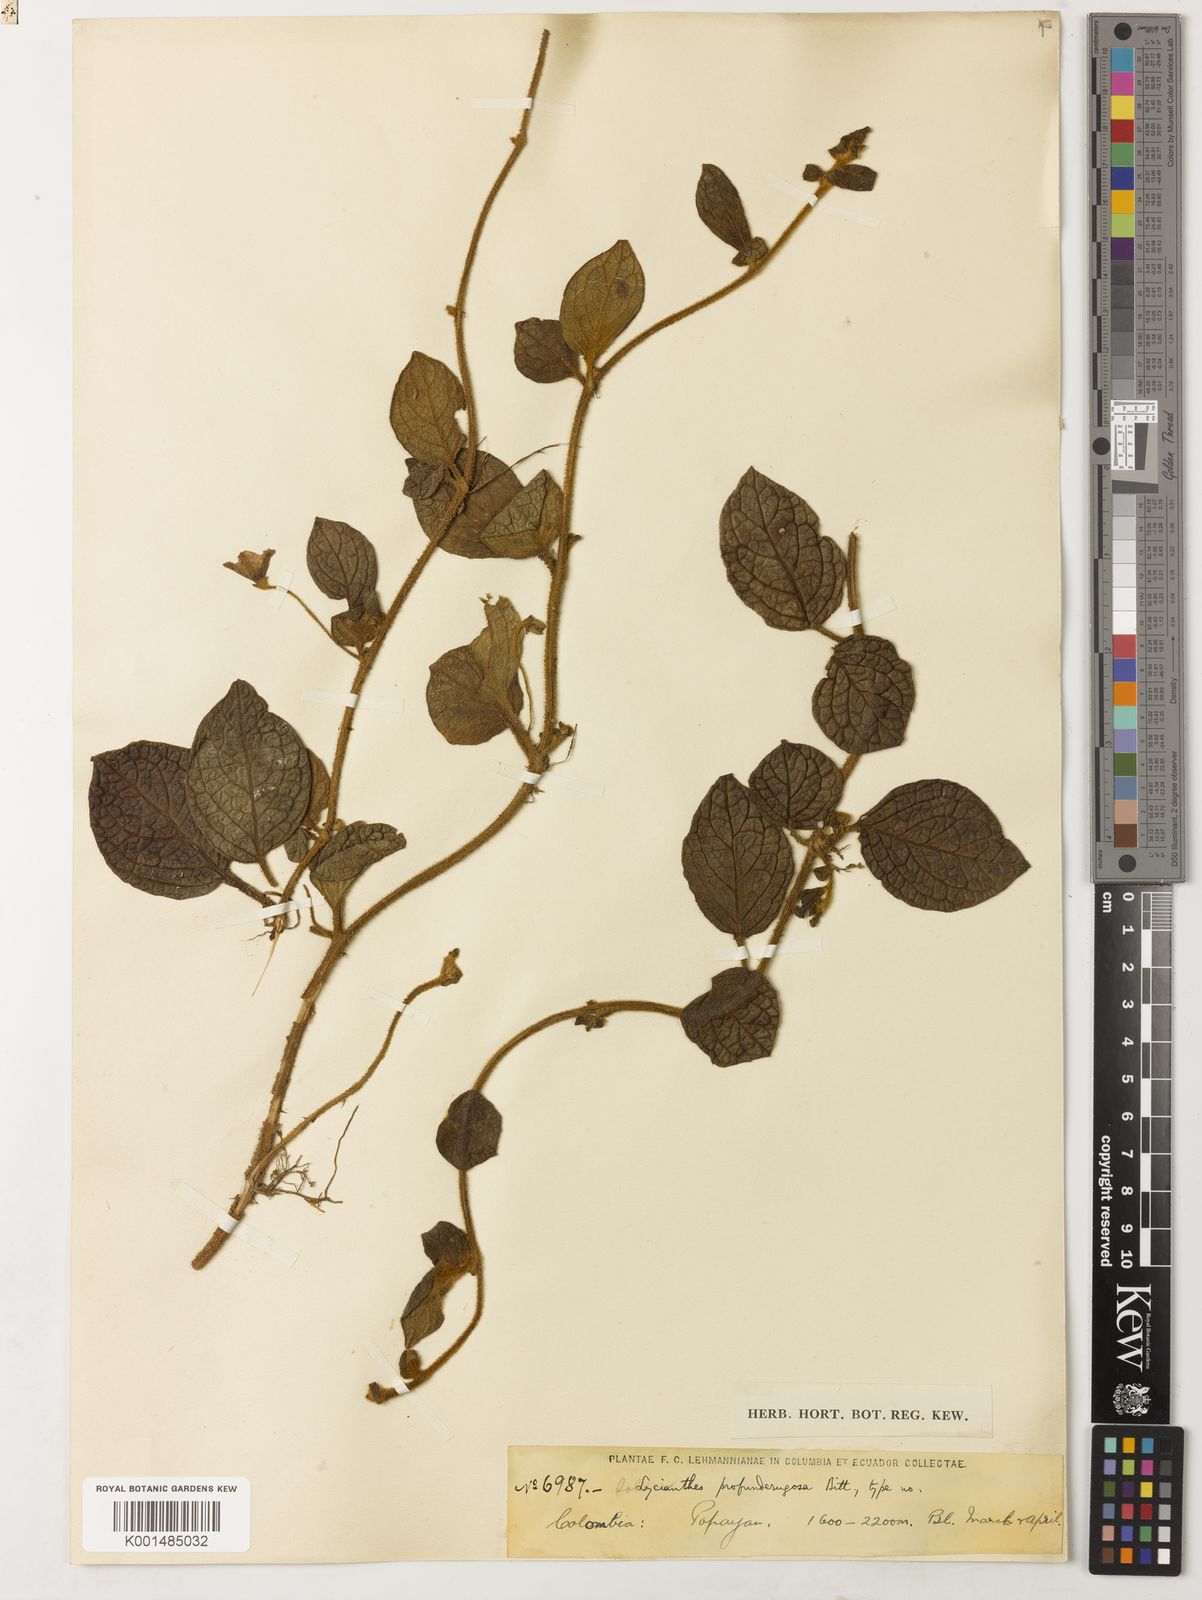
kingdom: Plantae
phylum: Tracheophyta
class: Magnoliopsida
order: Solanales
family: Solanaceae
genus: Lycianthes
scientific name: Lycianthes profunderugosa
